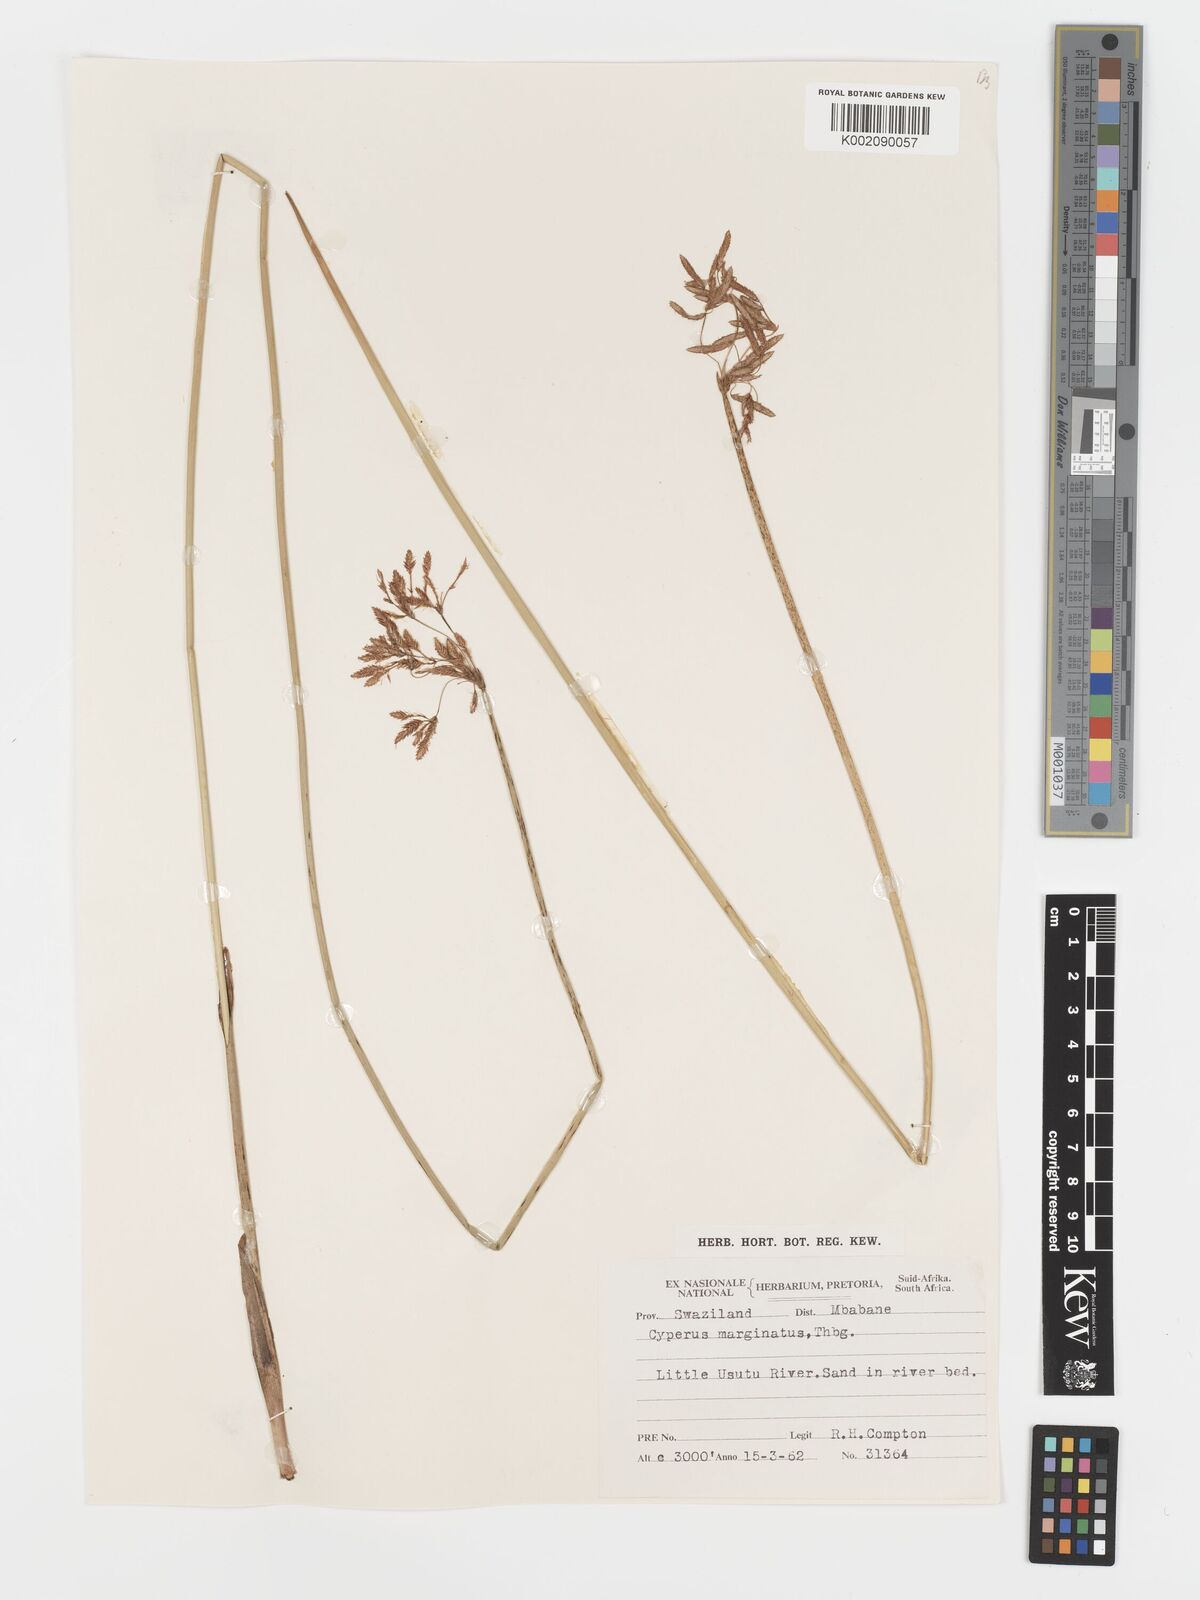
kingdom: Plantae
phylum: Tracheophyta
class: Liliopsida
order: Poales
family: Cyperaceae
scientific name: Cyperaceae
